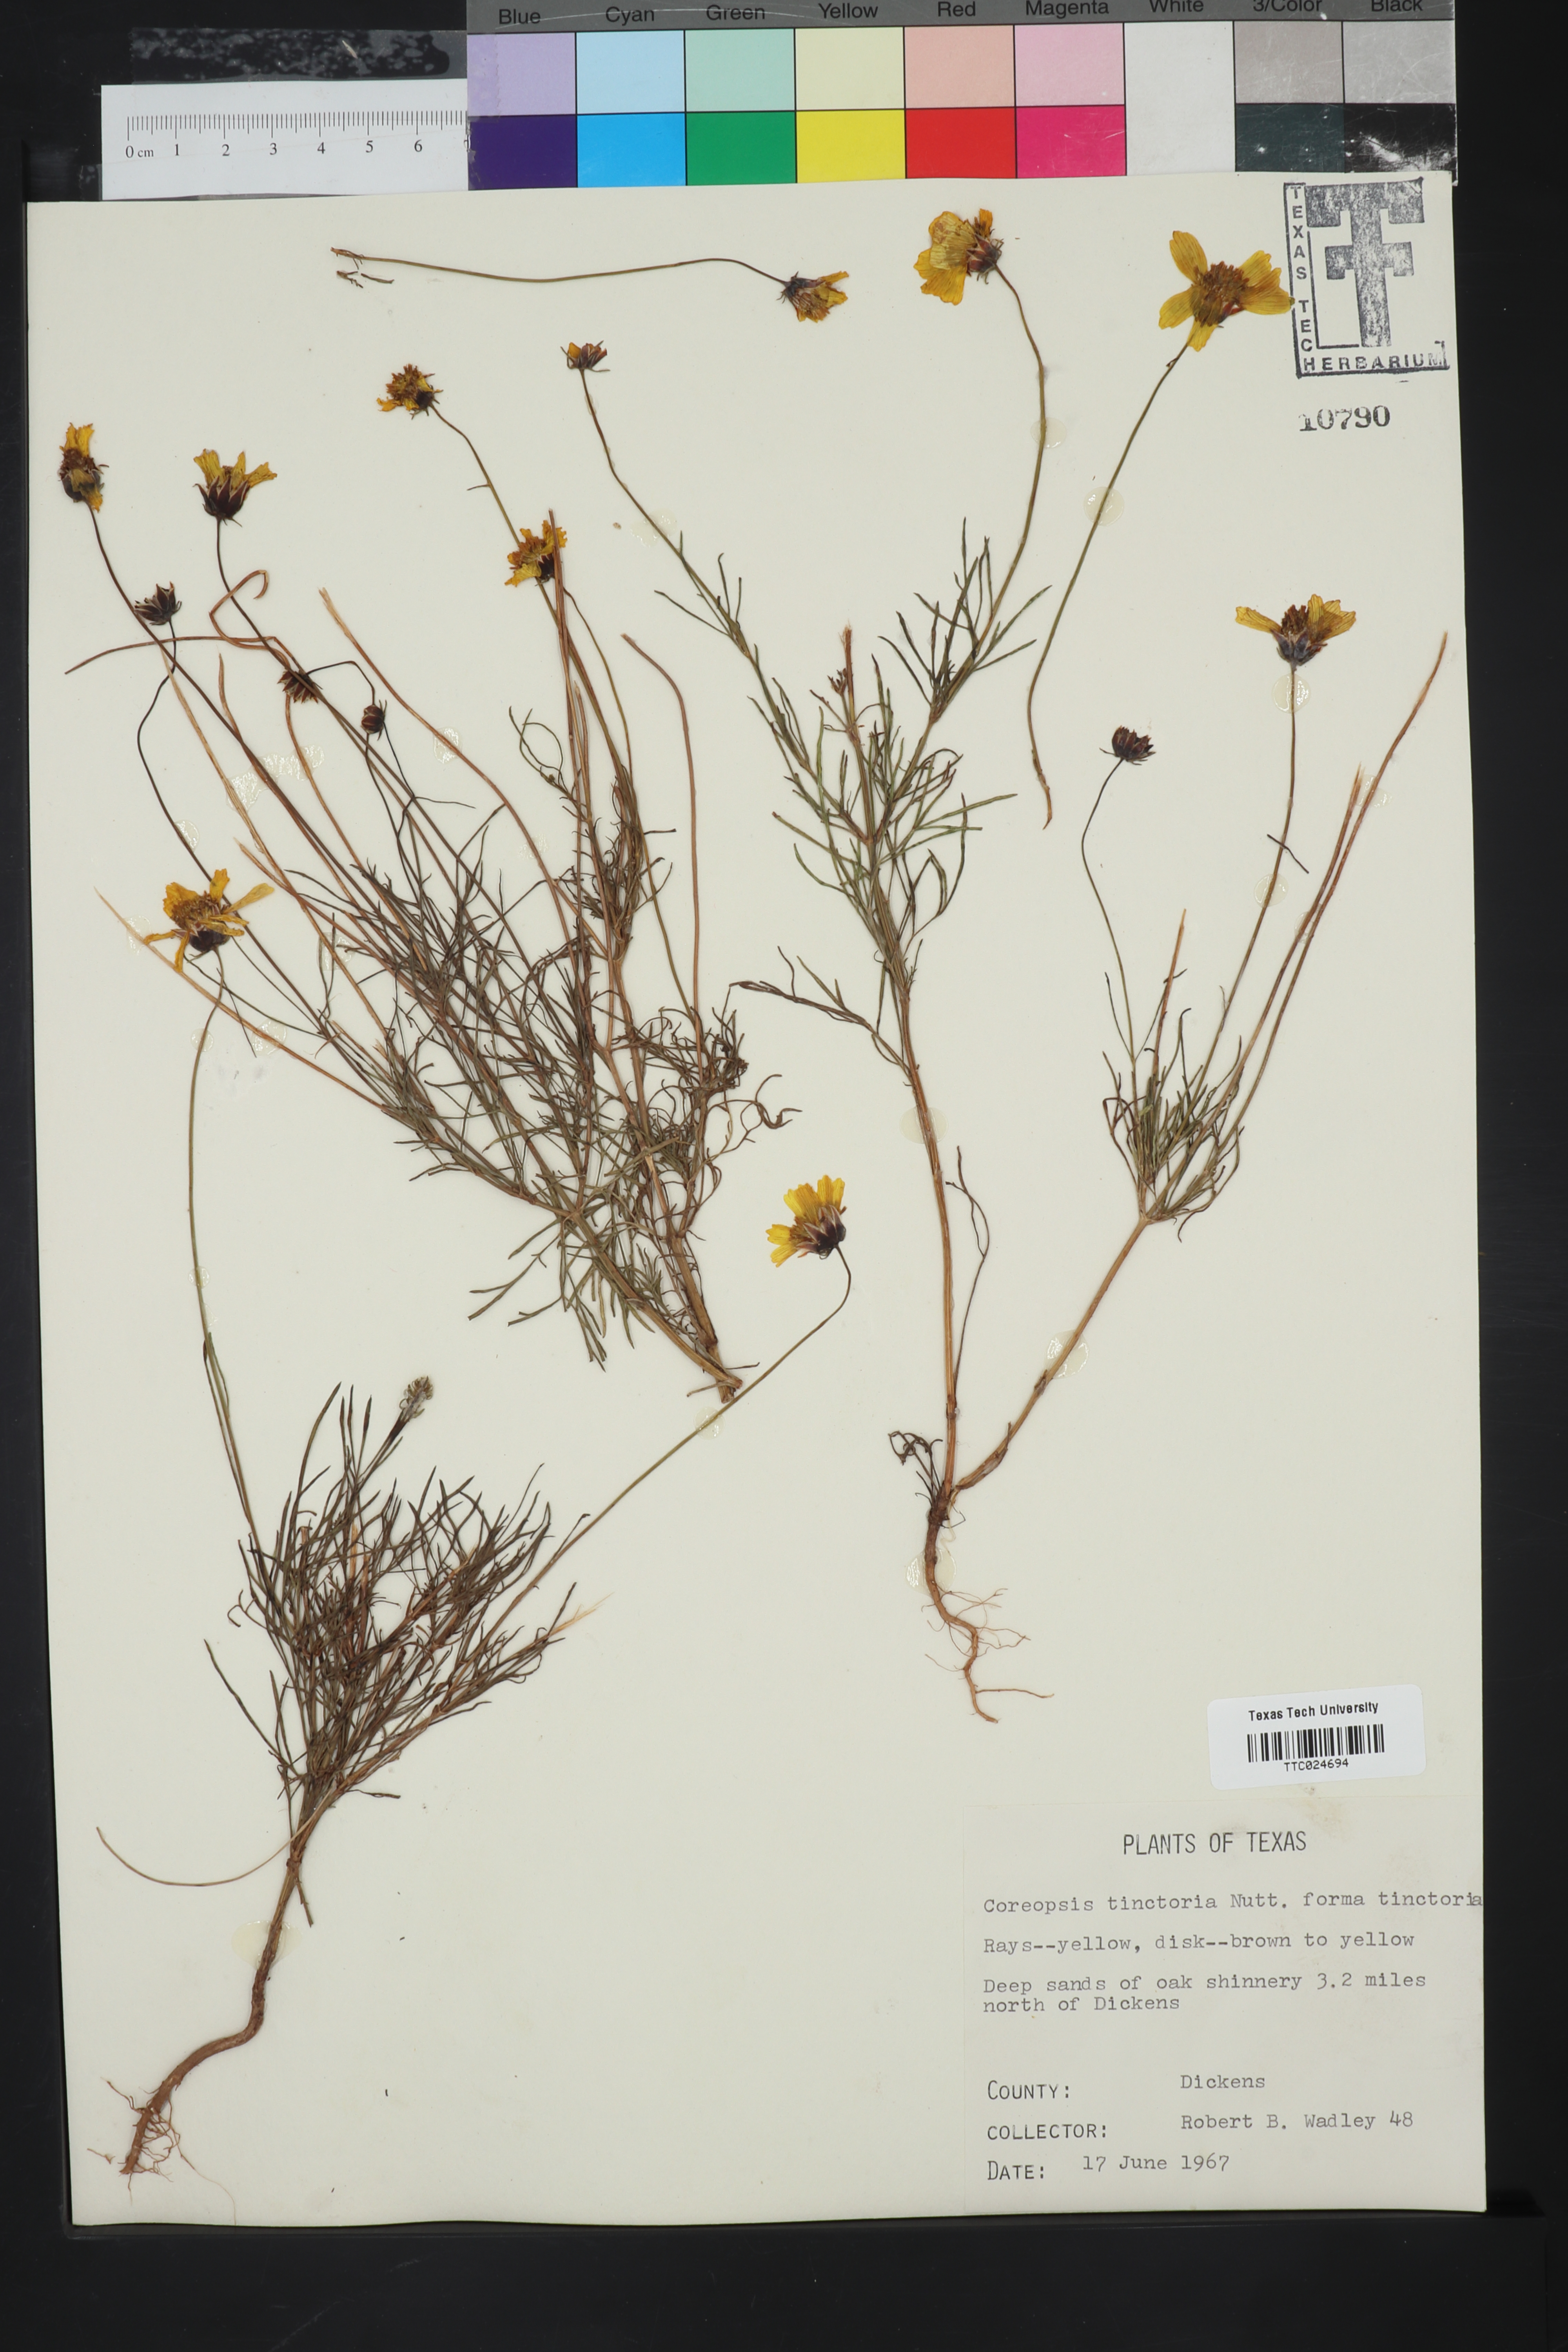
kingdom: Plantae
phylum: Tracheophyta
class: Magnoliopsida
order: Asterales
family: Asteraceae
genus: Coreopsis
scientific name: Coreopsis tinctoria
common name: Garden tickseed
